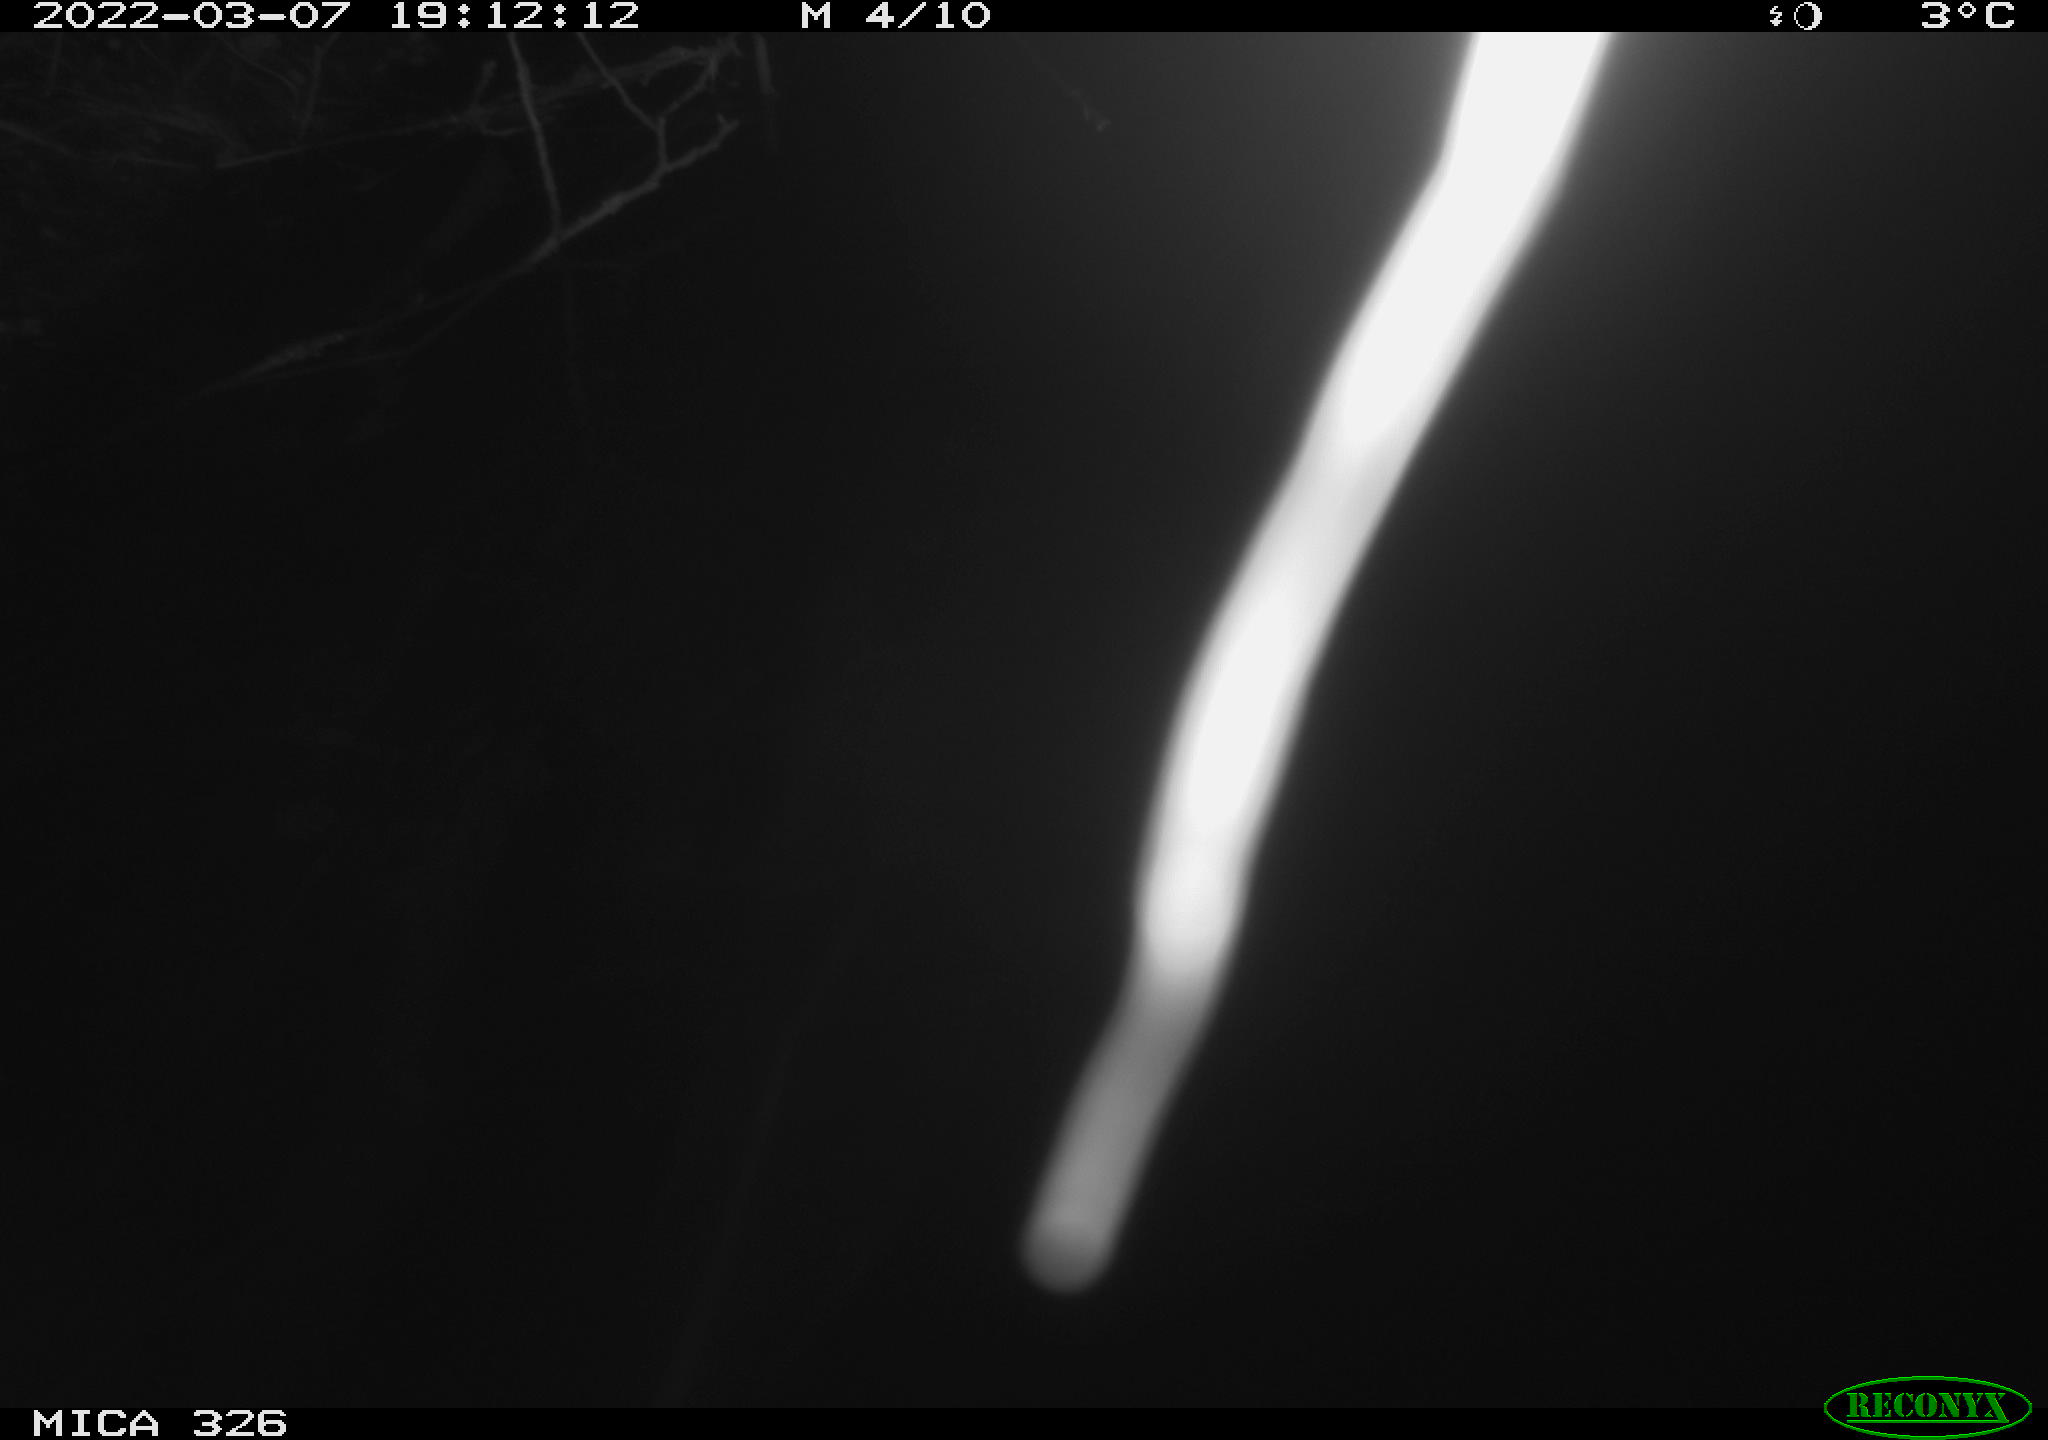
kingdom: Animalia
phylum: Chordata
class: Mammalia
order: Rodentia
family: Cricetidae
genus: Ondatra
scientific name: Ondatra zibethicus
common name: Muskrat
